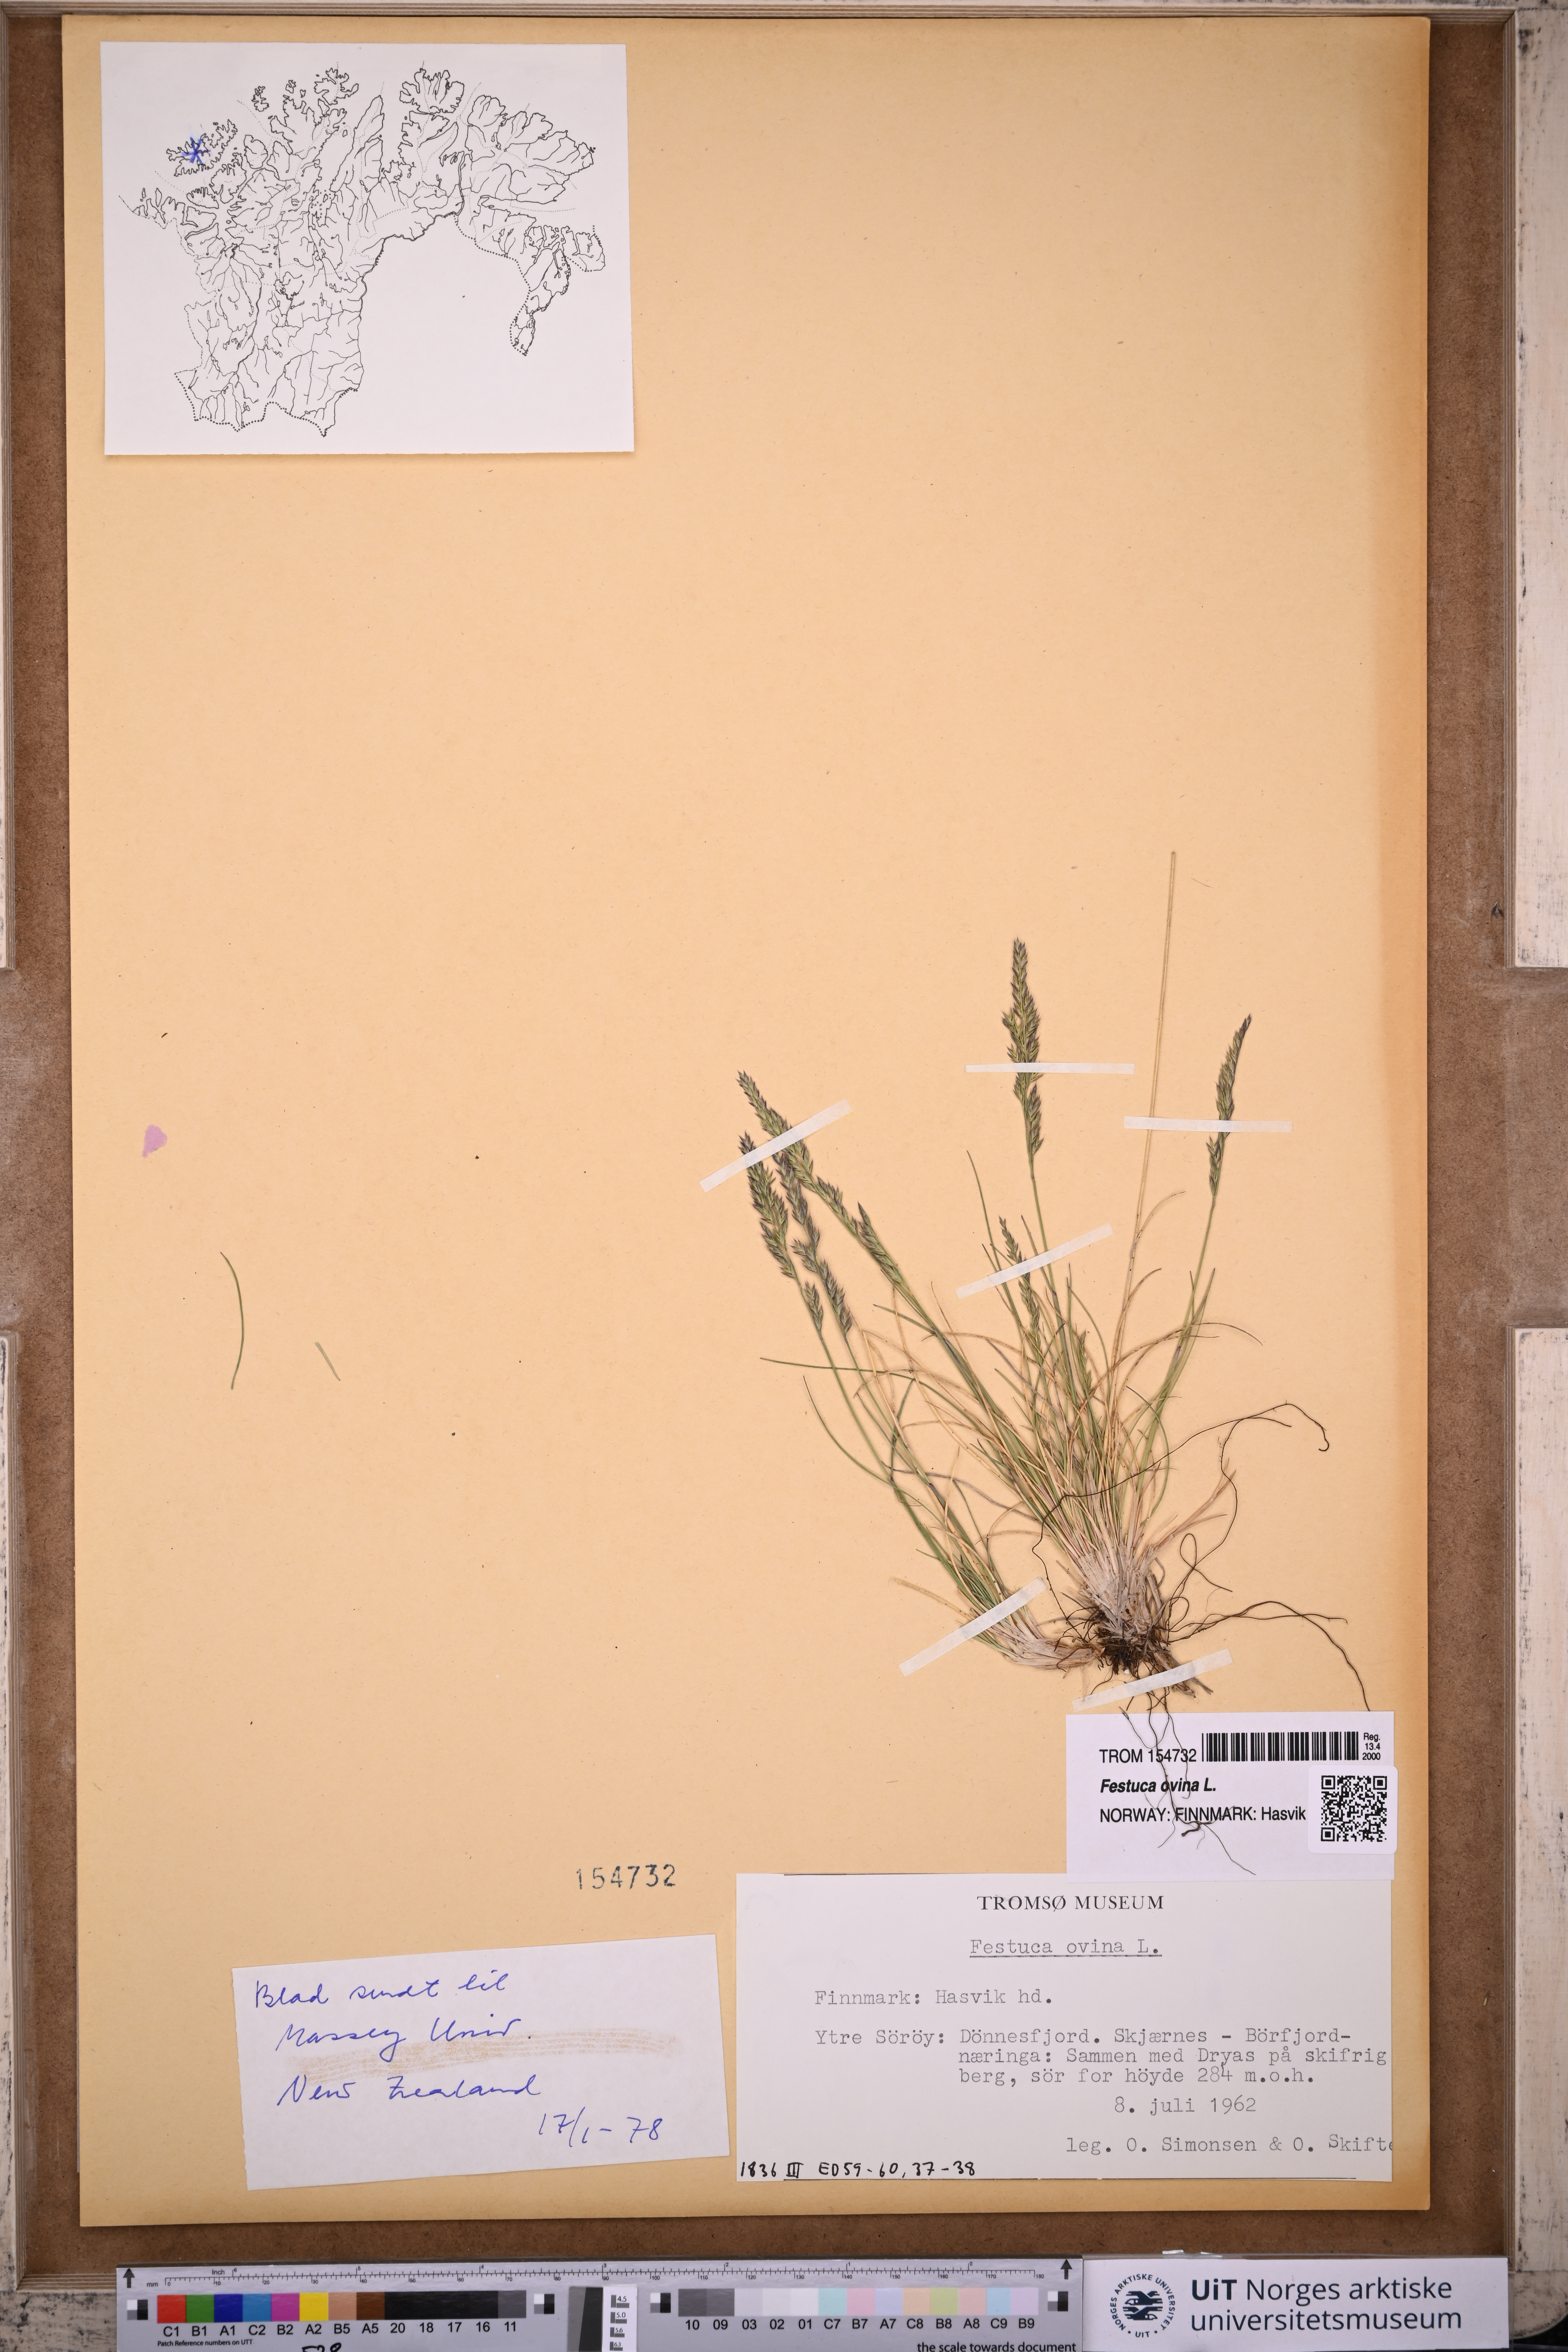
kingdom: Plantae
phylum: Tracheophyta
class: Liliopsida
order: Poales
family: Poaceae
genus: Festuca
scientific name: Festuca ovina
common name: Sheep fescue
